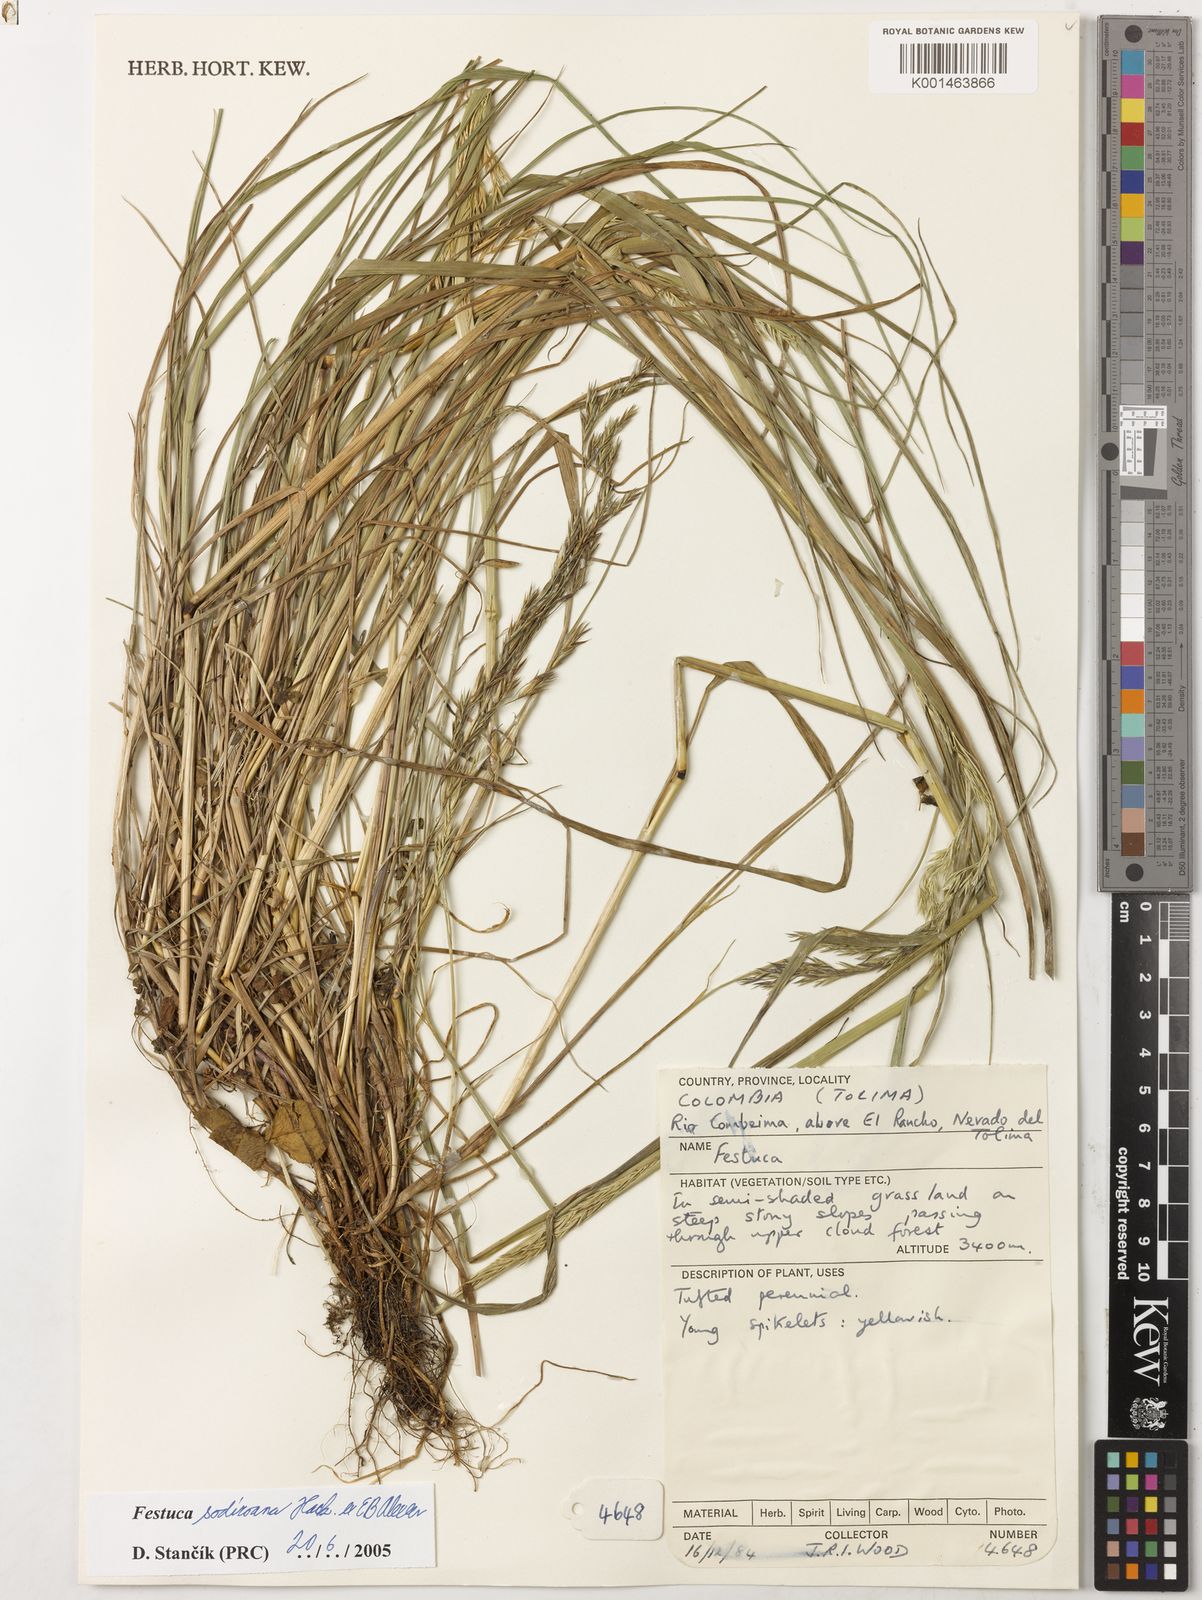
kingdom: Plantae
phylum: Tracheophyta
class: Liliopsida
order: Poales
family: Poaceae
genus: Festuca
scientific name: Festuca sodiroana
